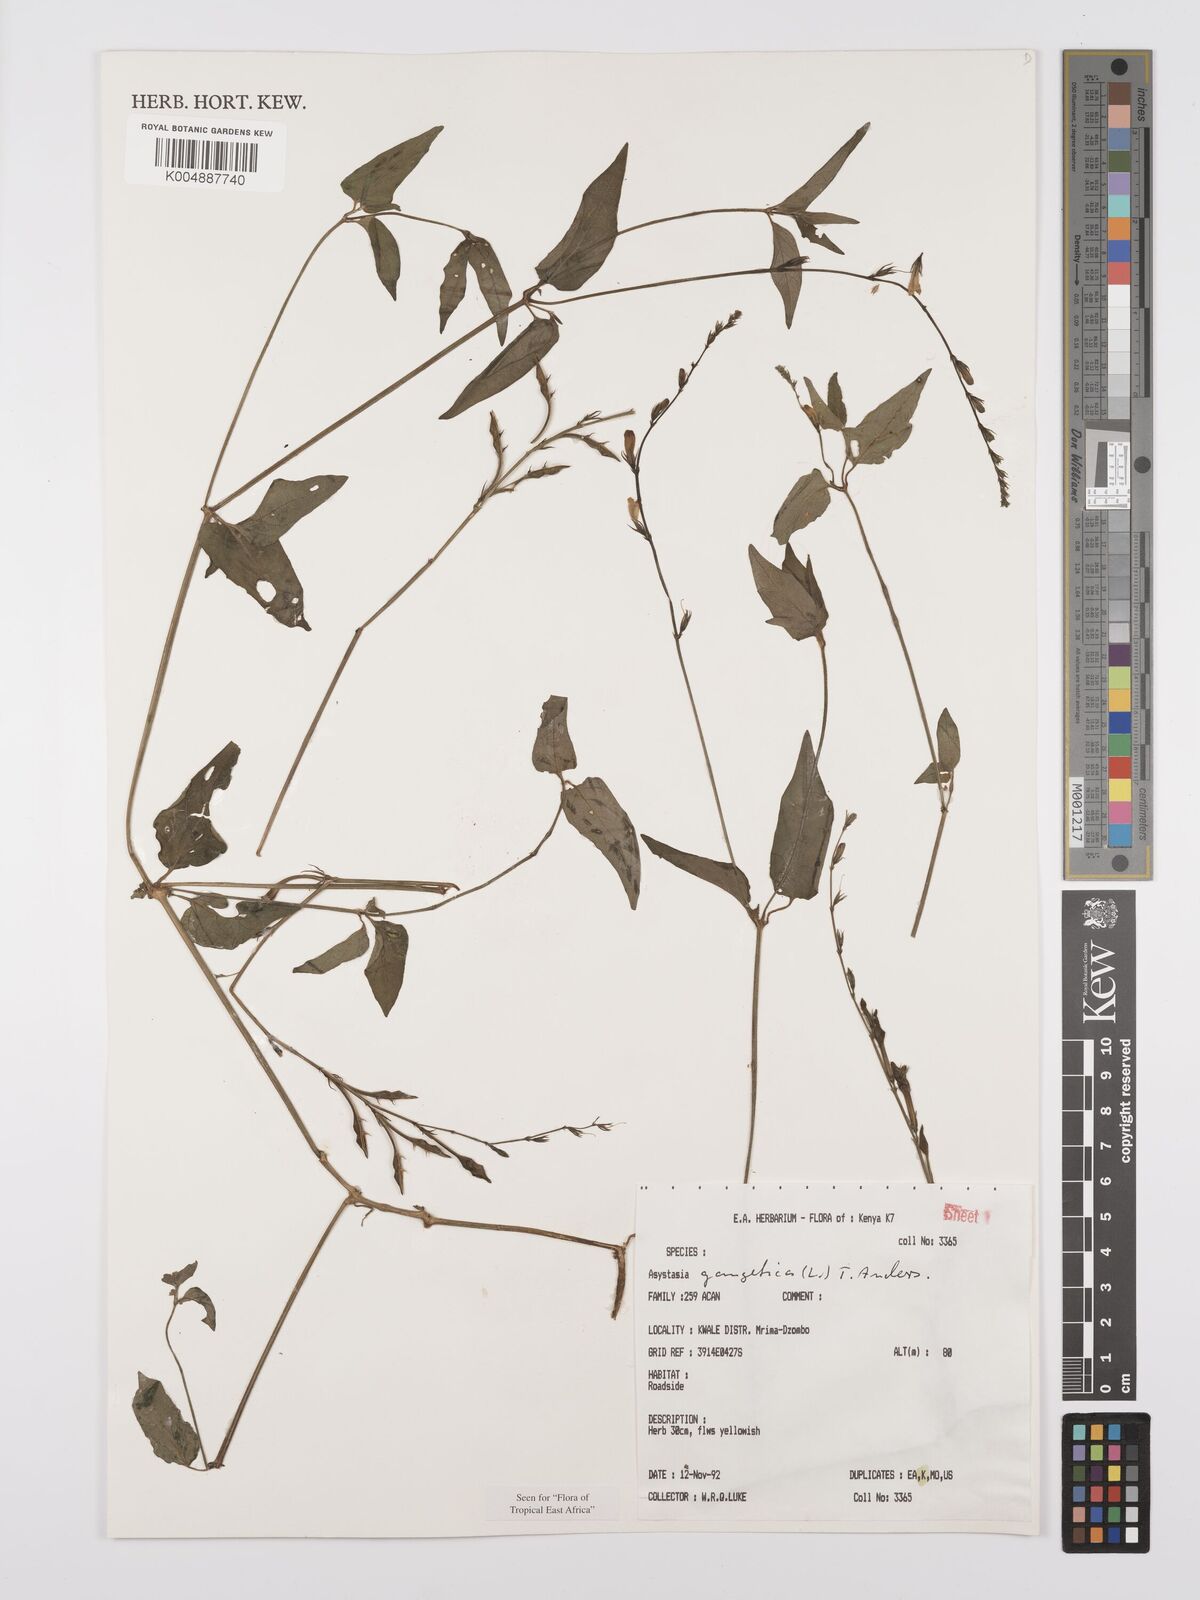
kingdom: Plantae
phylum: Tracheophyta
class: Magnoliopsida
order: Lamiales
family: Acanthaceae
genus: Asystasia
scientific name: Asystasia gangetica
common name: Chinese violet
